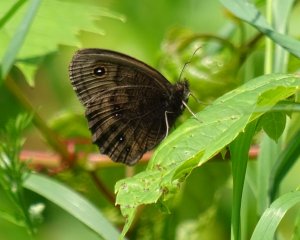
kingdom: Animalia
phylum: Arthropoda
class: Insecta
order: Lepidoptera
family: Nymphalidae
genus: Cercyonis
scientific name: Cercyonis pegala
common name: Common Wood-Nymph
